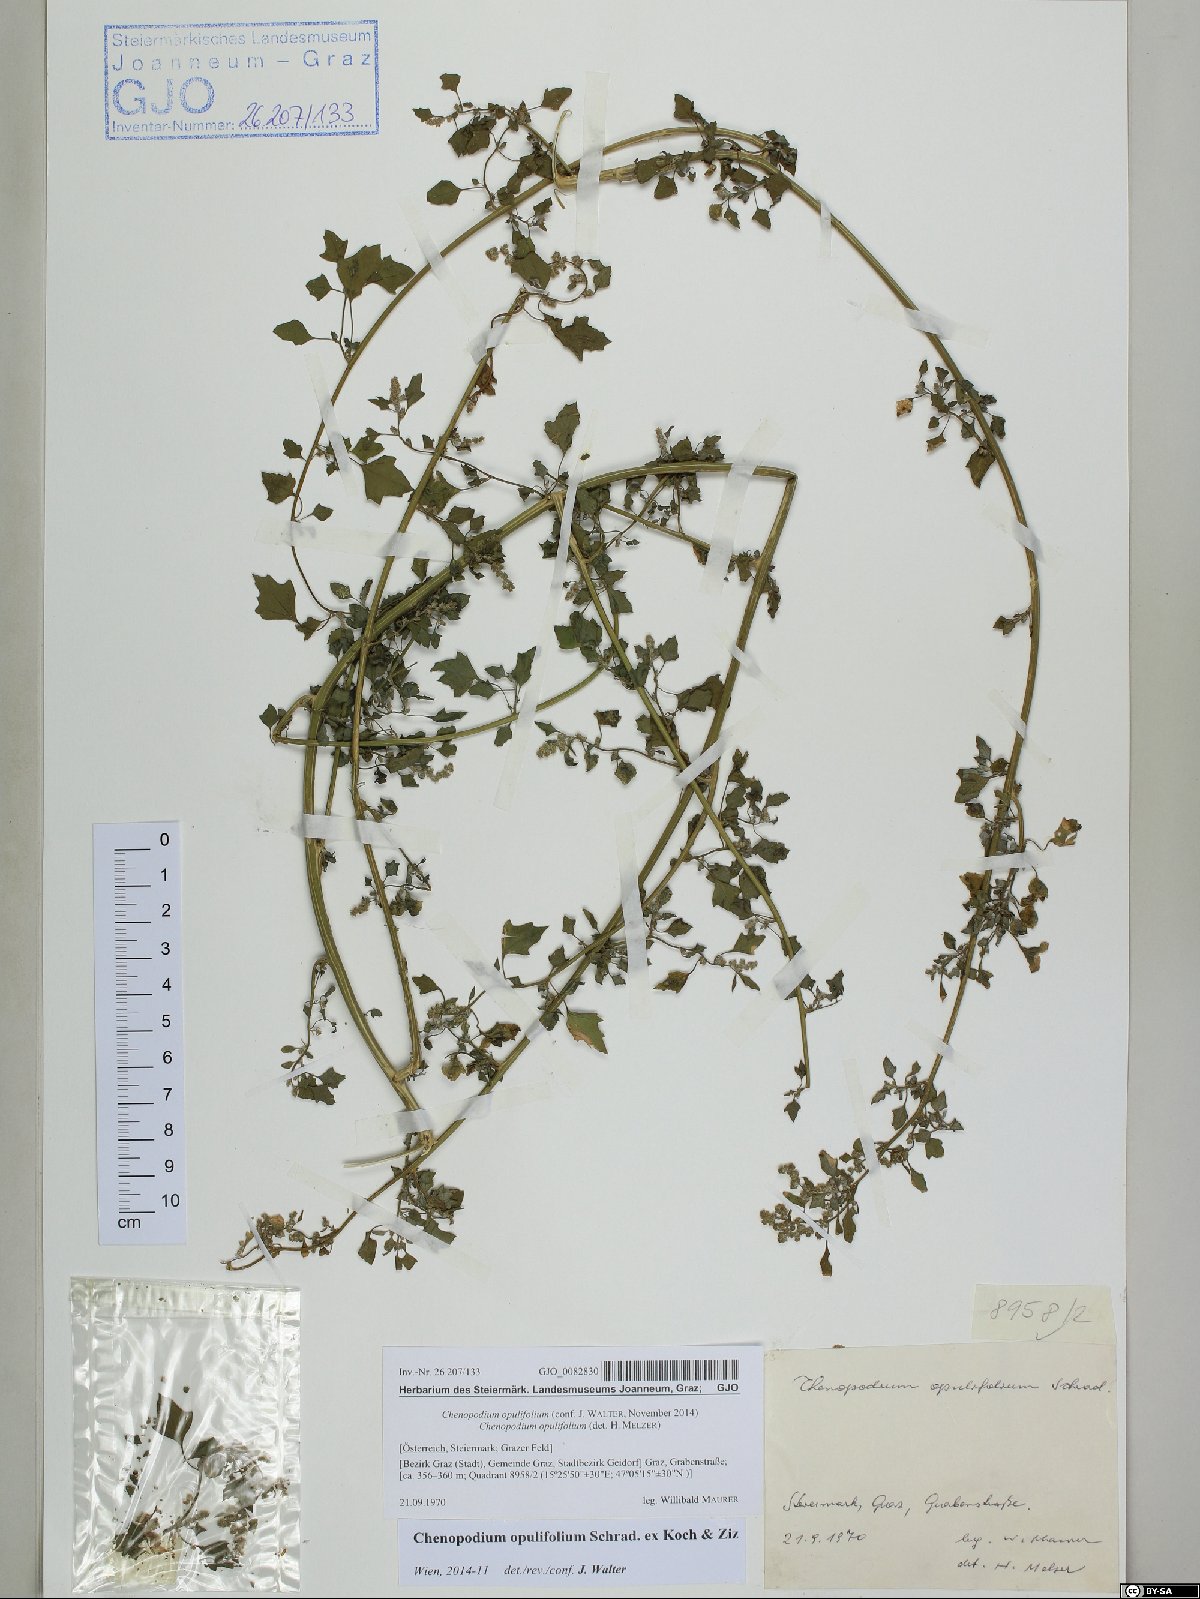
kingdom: Plantae
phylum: Tracheophyta
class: Magnoliopsida
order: Caryophyllales
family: Amaranthaceae
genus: Chenopodium
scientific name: Chenopodium opulifolium
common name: Grey goosefoot
